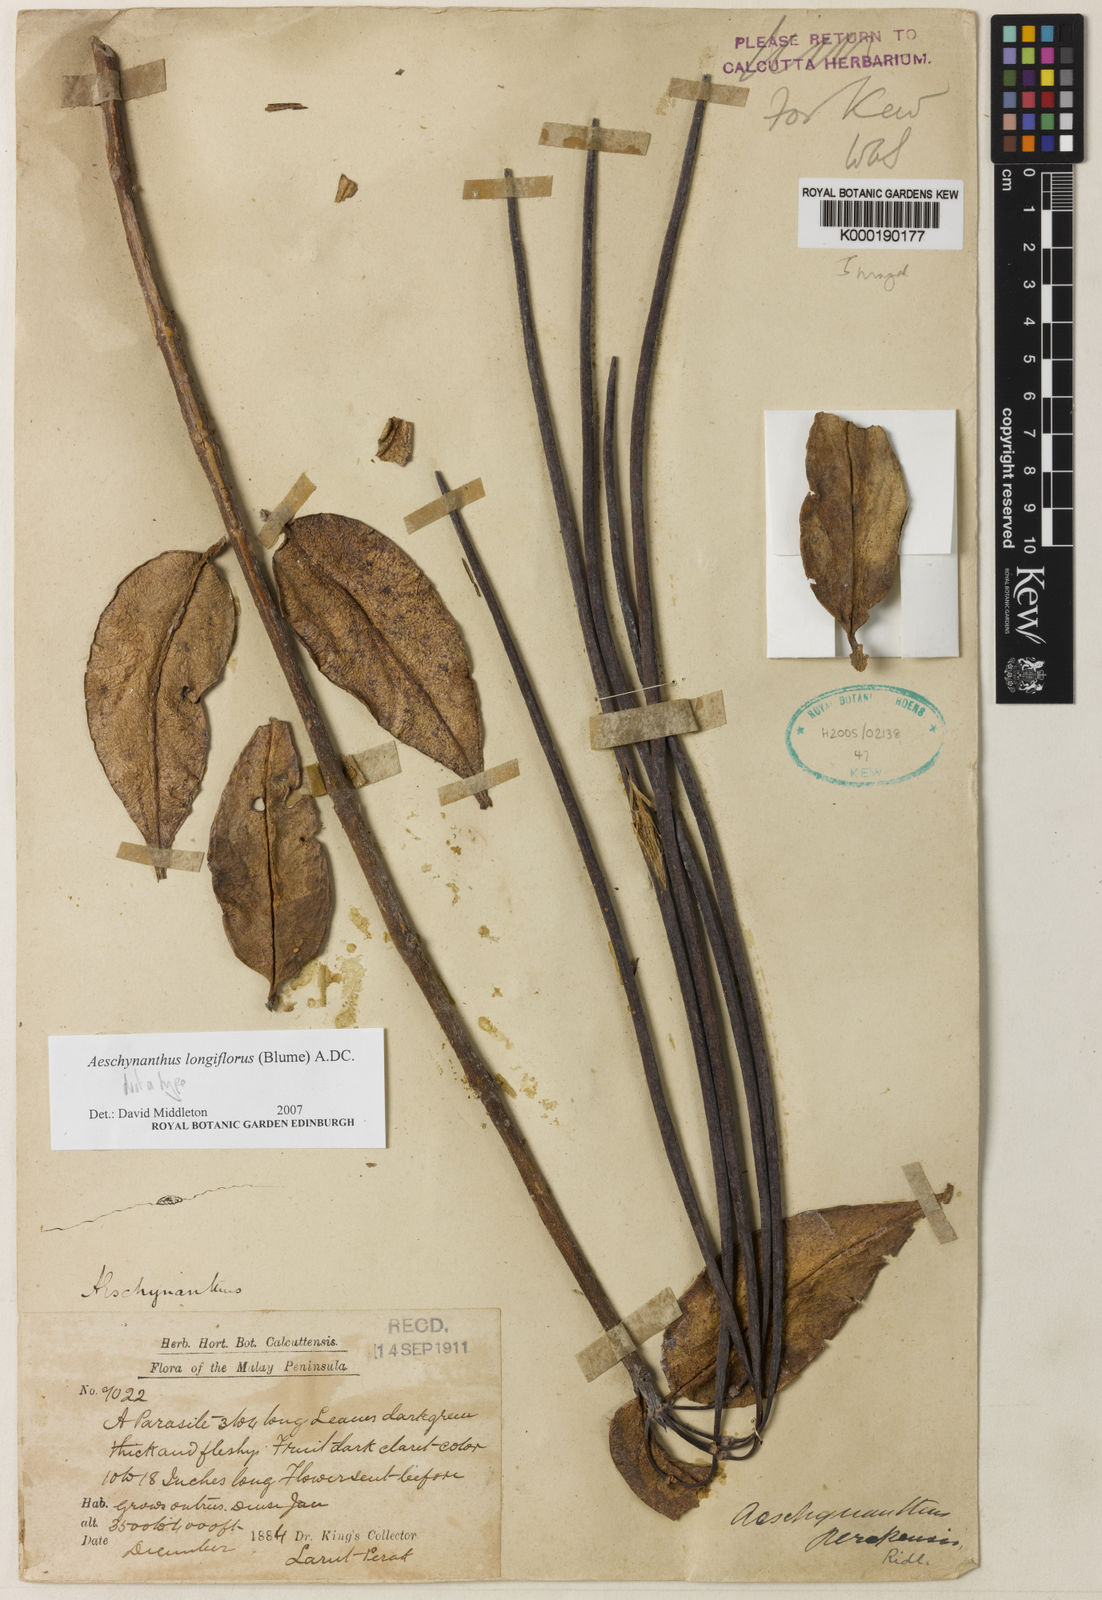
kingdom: Plantae
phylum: Tracheophyta
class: Magnoliopsida
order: Lamiales
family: Gesneriaceae
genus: Aeschynanthus
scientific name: Aeschynanthus longiflorus
